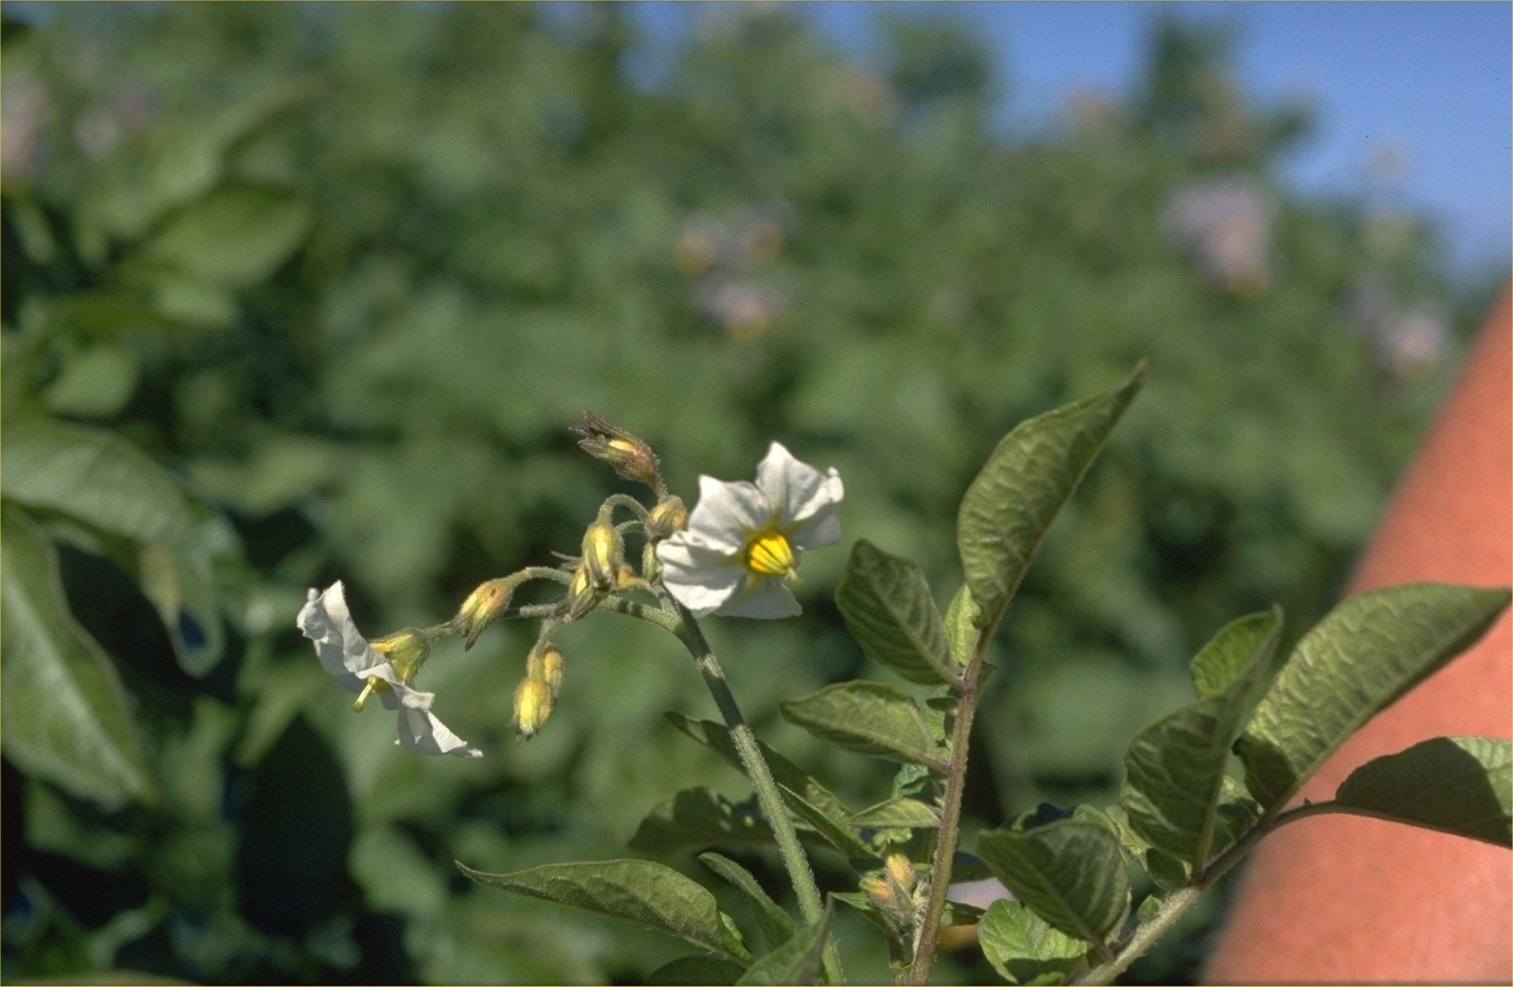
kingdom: Plantae
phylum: Tracheophyta
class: Magnoliopsida
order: Solanales
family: Solanaceae
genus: Solanum
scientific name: Solanum tuberosum
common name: Potato
